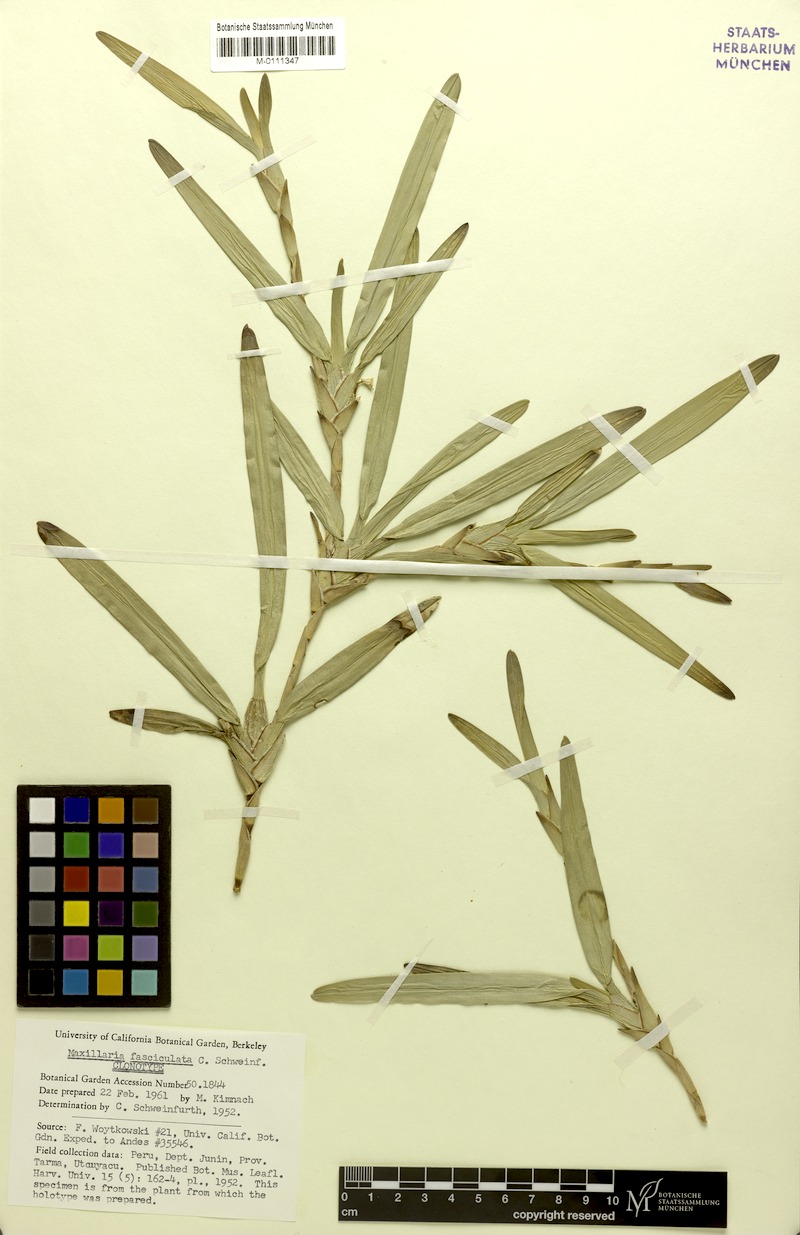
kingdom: Plantae
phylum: Tracheophyta
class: Liliopsida
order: Asparagales
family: Orchidaceae
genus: Maxillaria
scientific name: Maxillaria semiscabra
